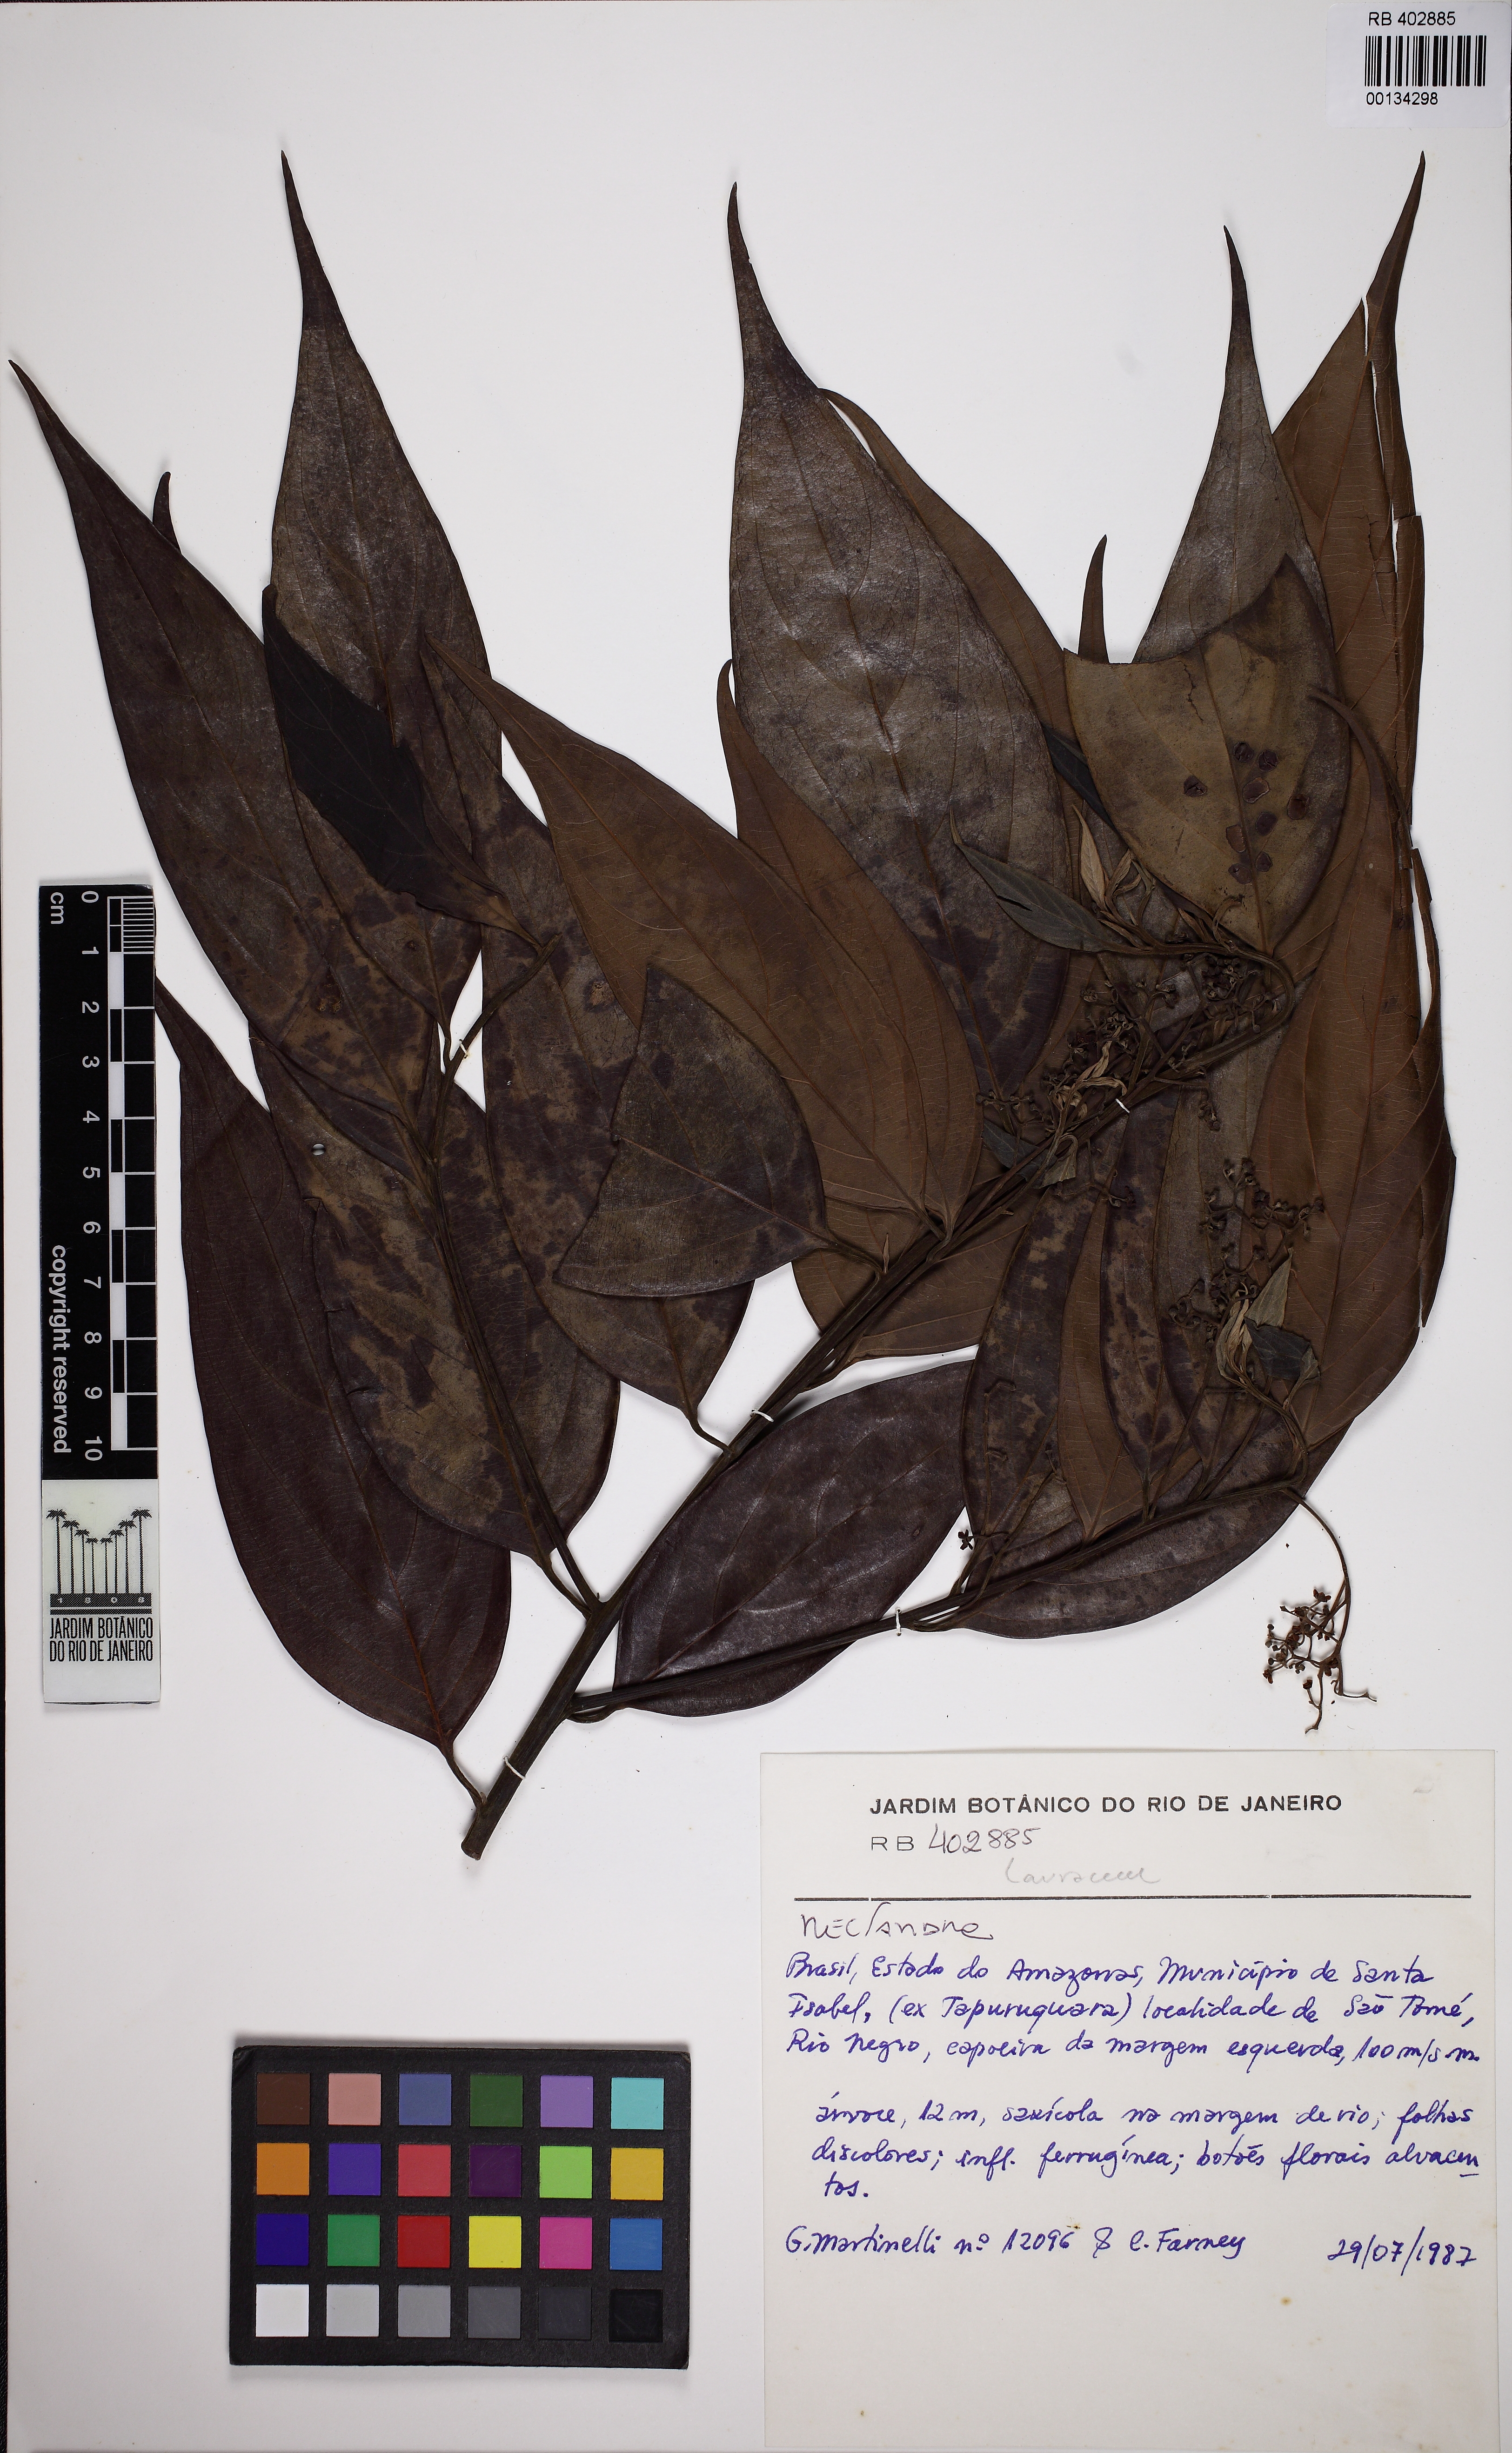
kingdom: Plantae
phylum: Tracheophyta
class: Magnoliopsida
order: Laurales
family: Lauraceae
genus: Nectandra
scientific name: Nectandra
